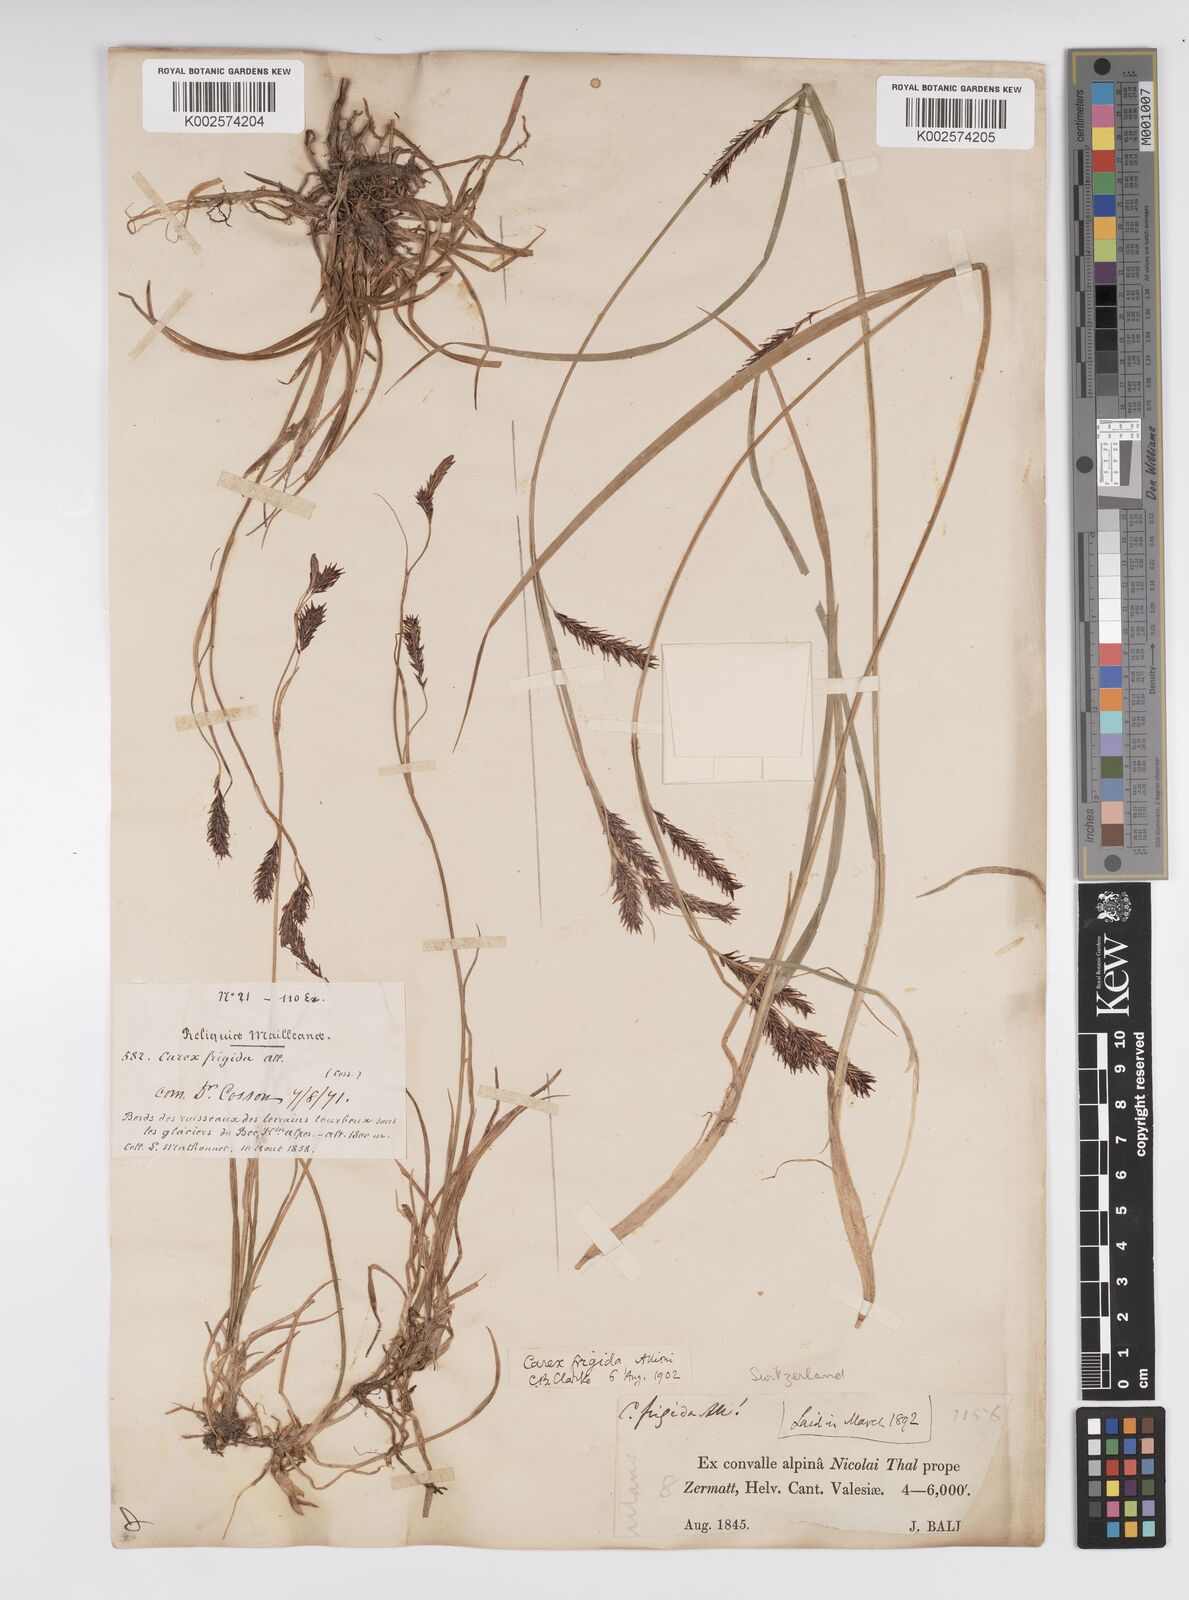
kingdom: Plantae
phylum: Tracheophyta
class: Liliopsida
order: Poales
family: Cyperaceae
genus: Carex
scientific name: Carex frigida
